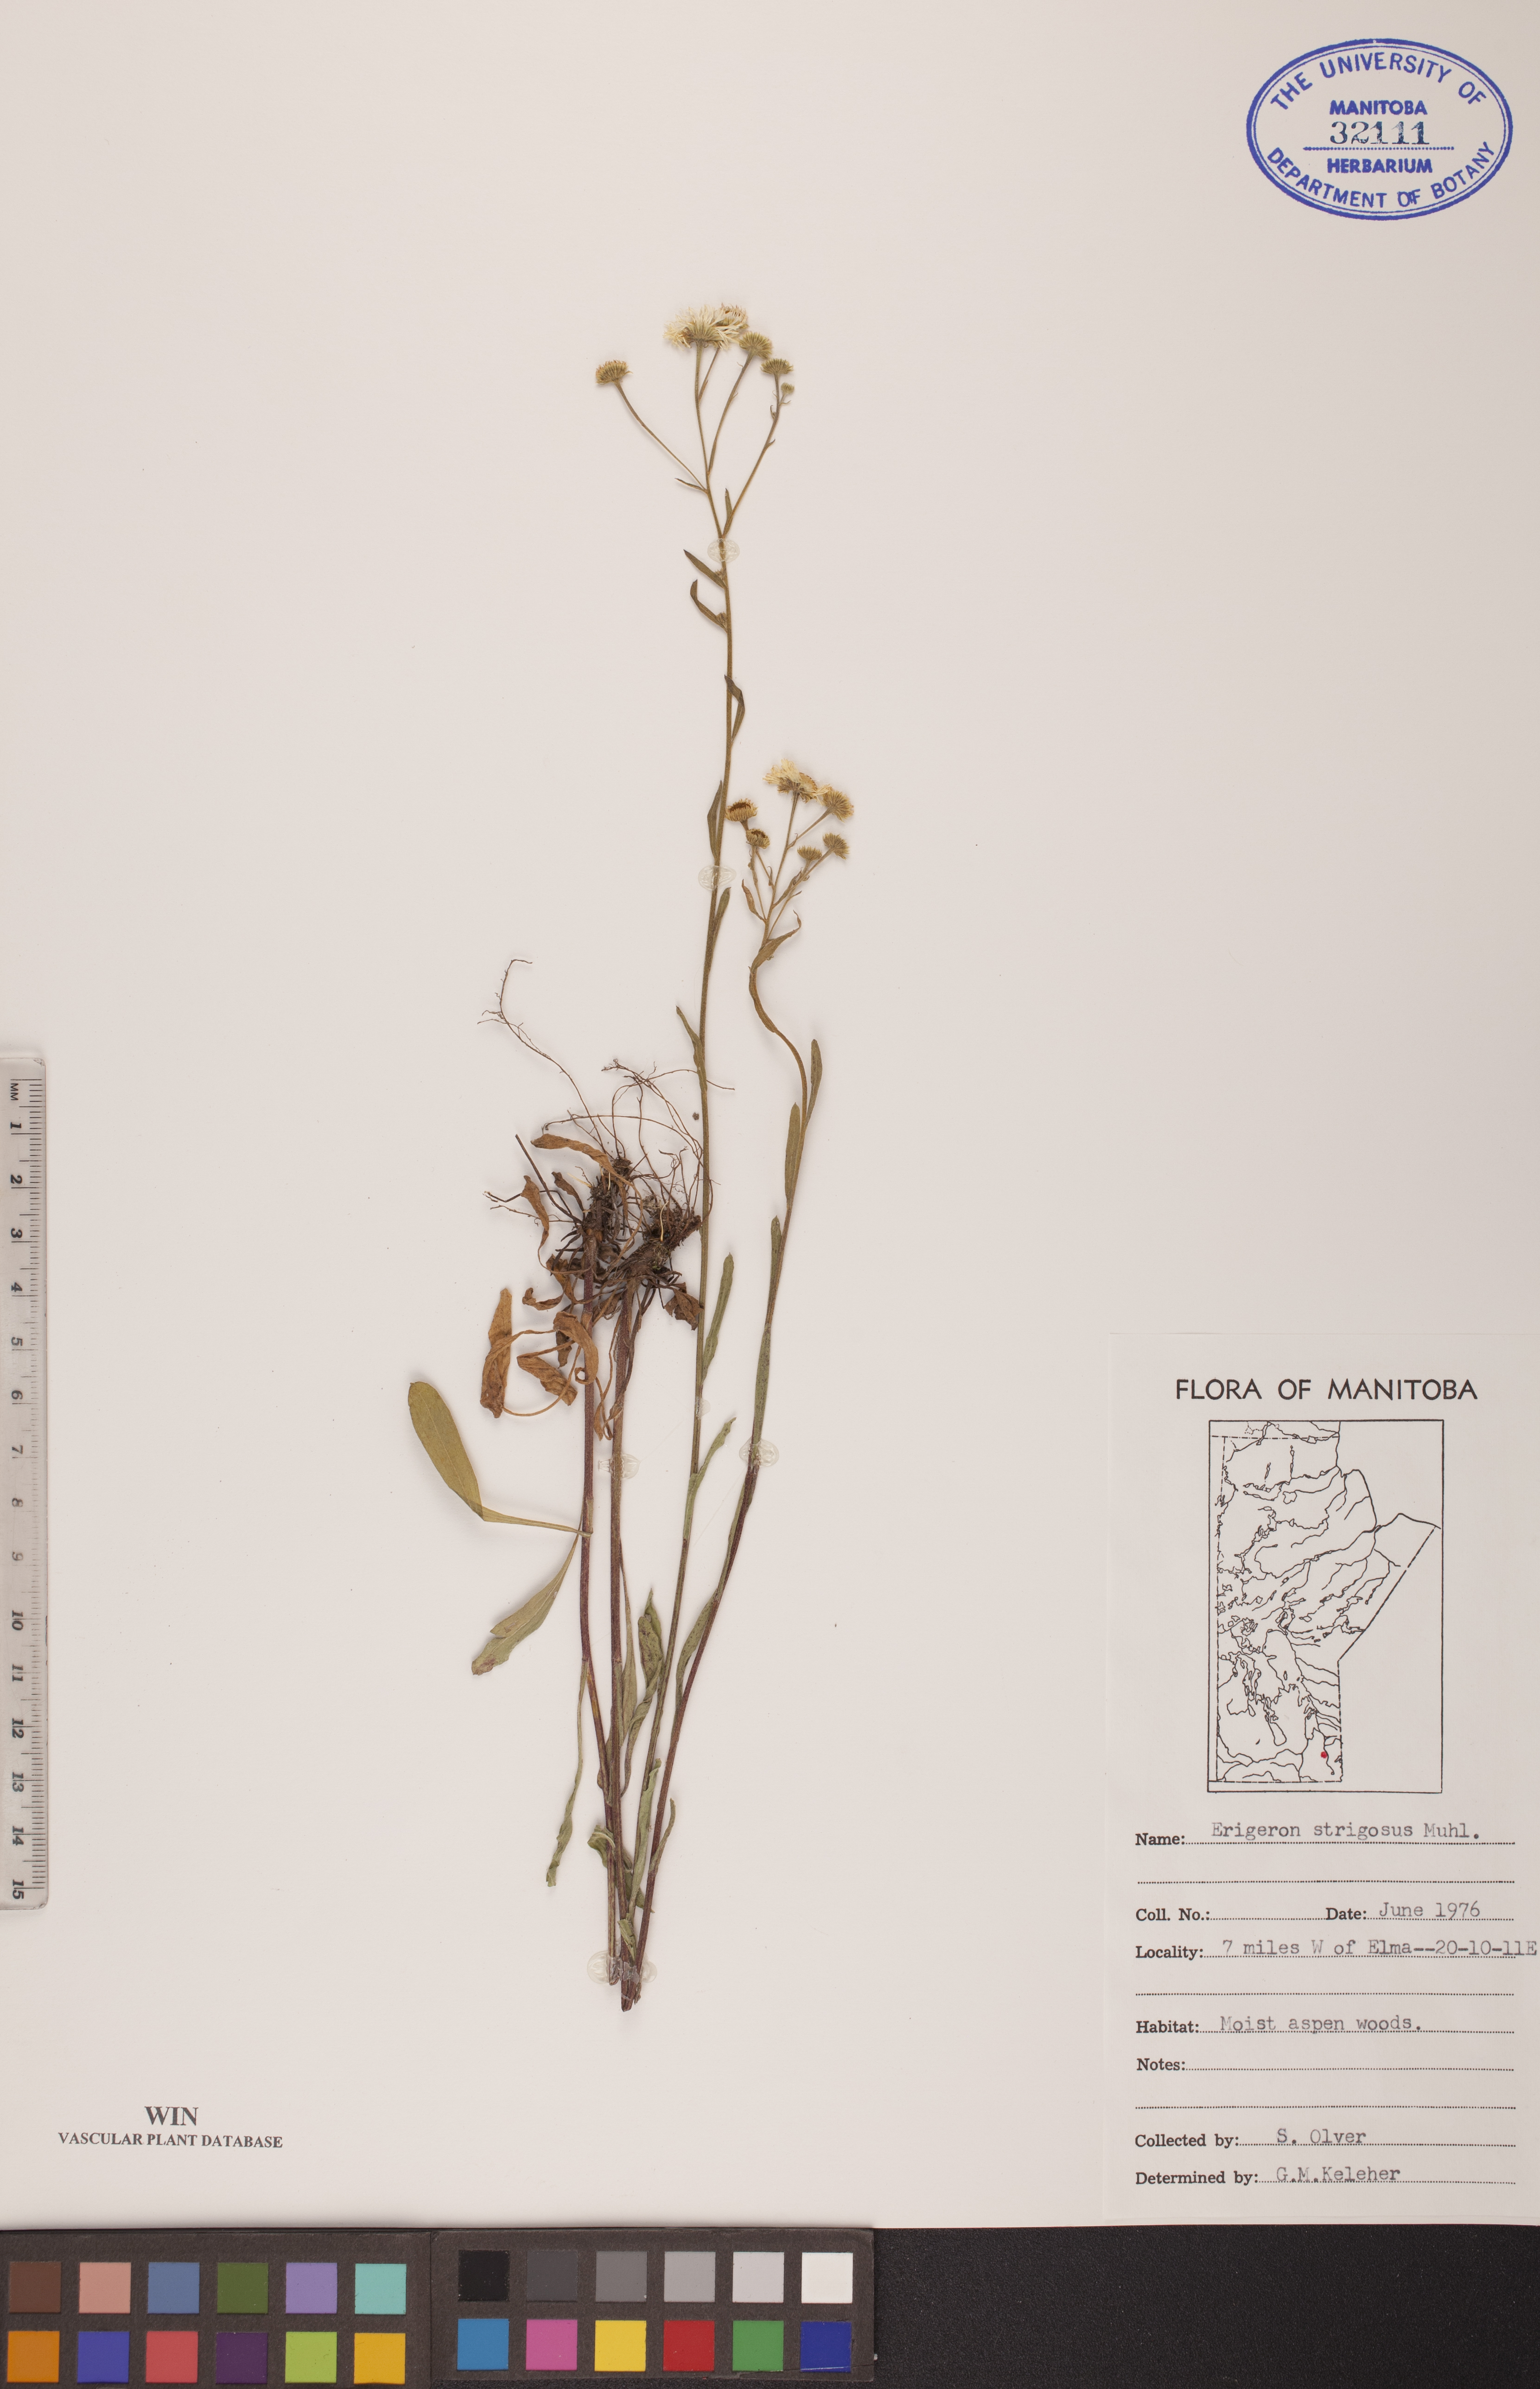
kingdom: Plantae
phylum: Tracheophyta
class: Magnoliopsida
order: Asterales
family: Asteraceae
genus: Erigeron
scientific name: Erigeron strigosus
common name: Common eastern fleabane
